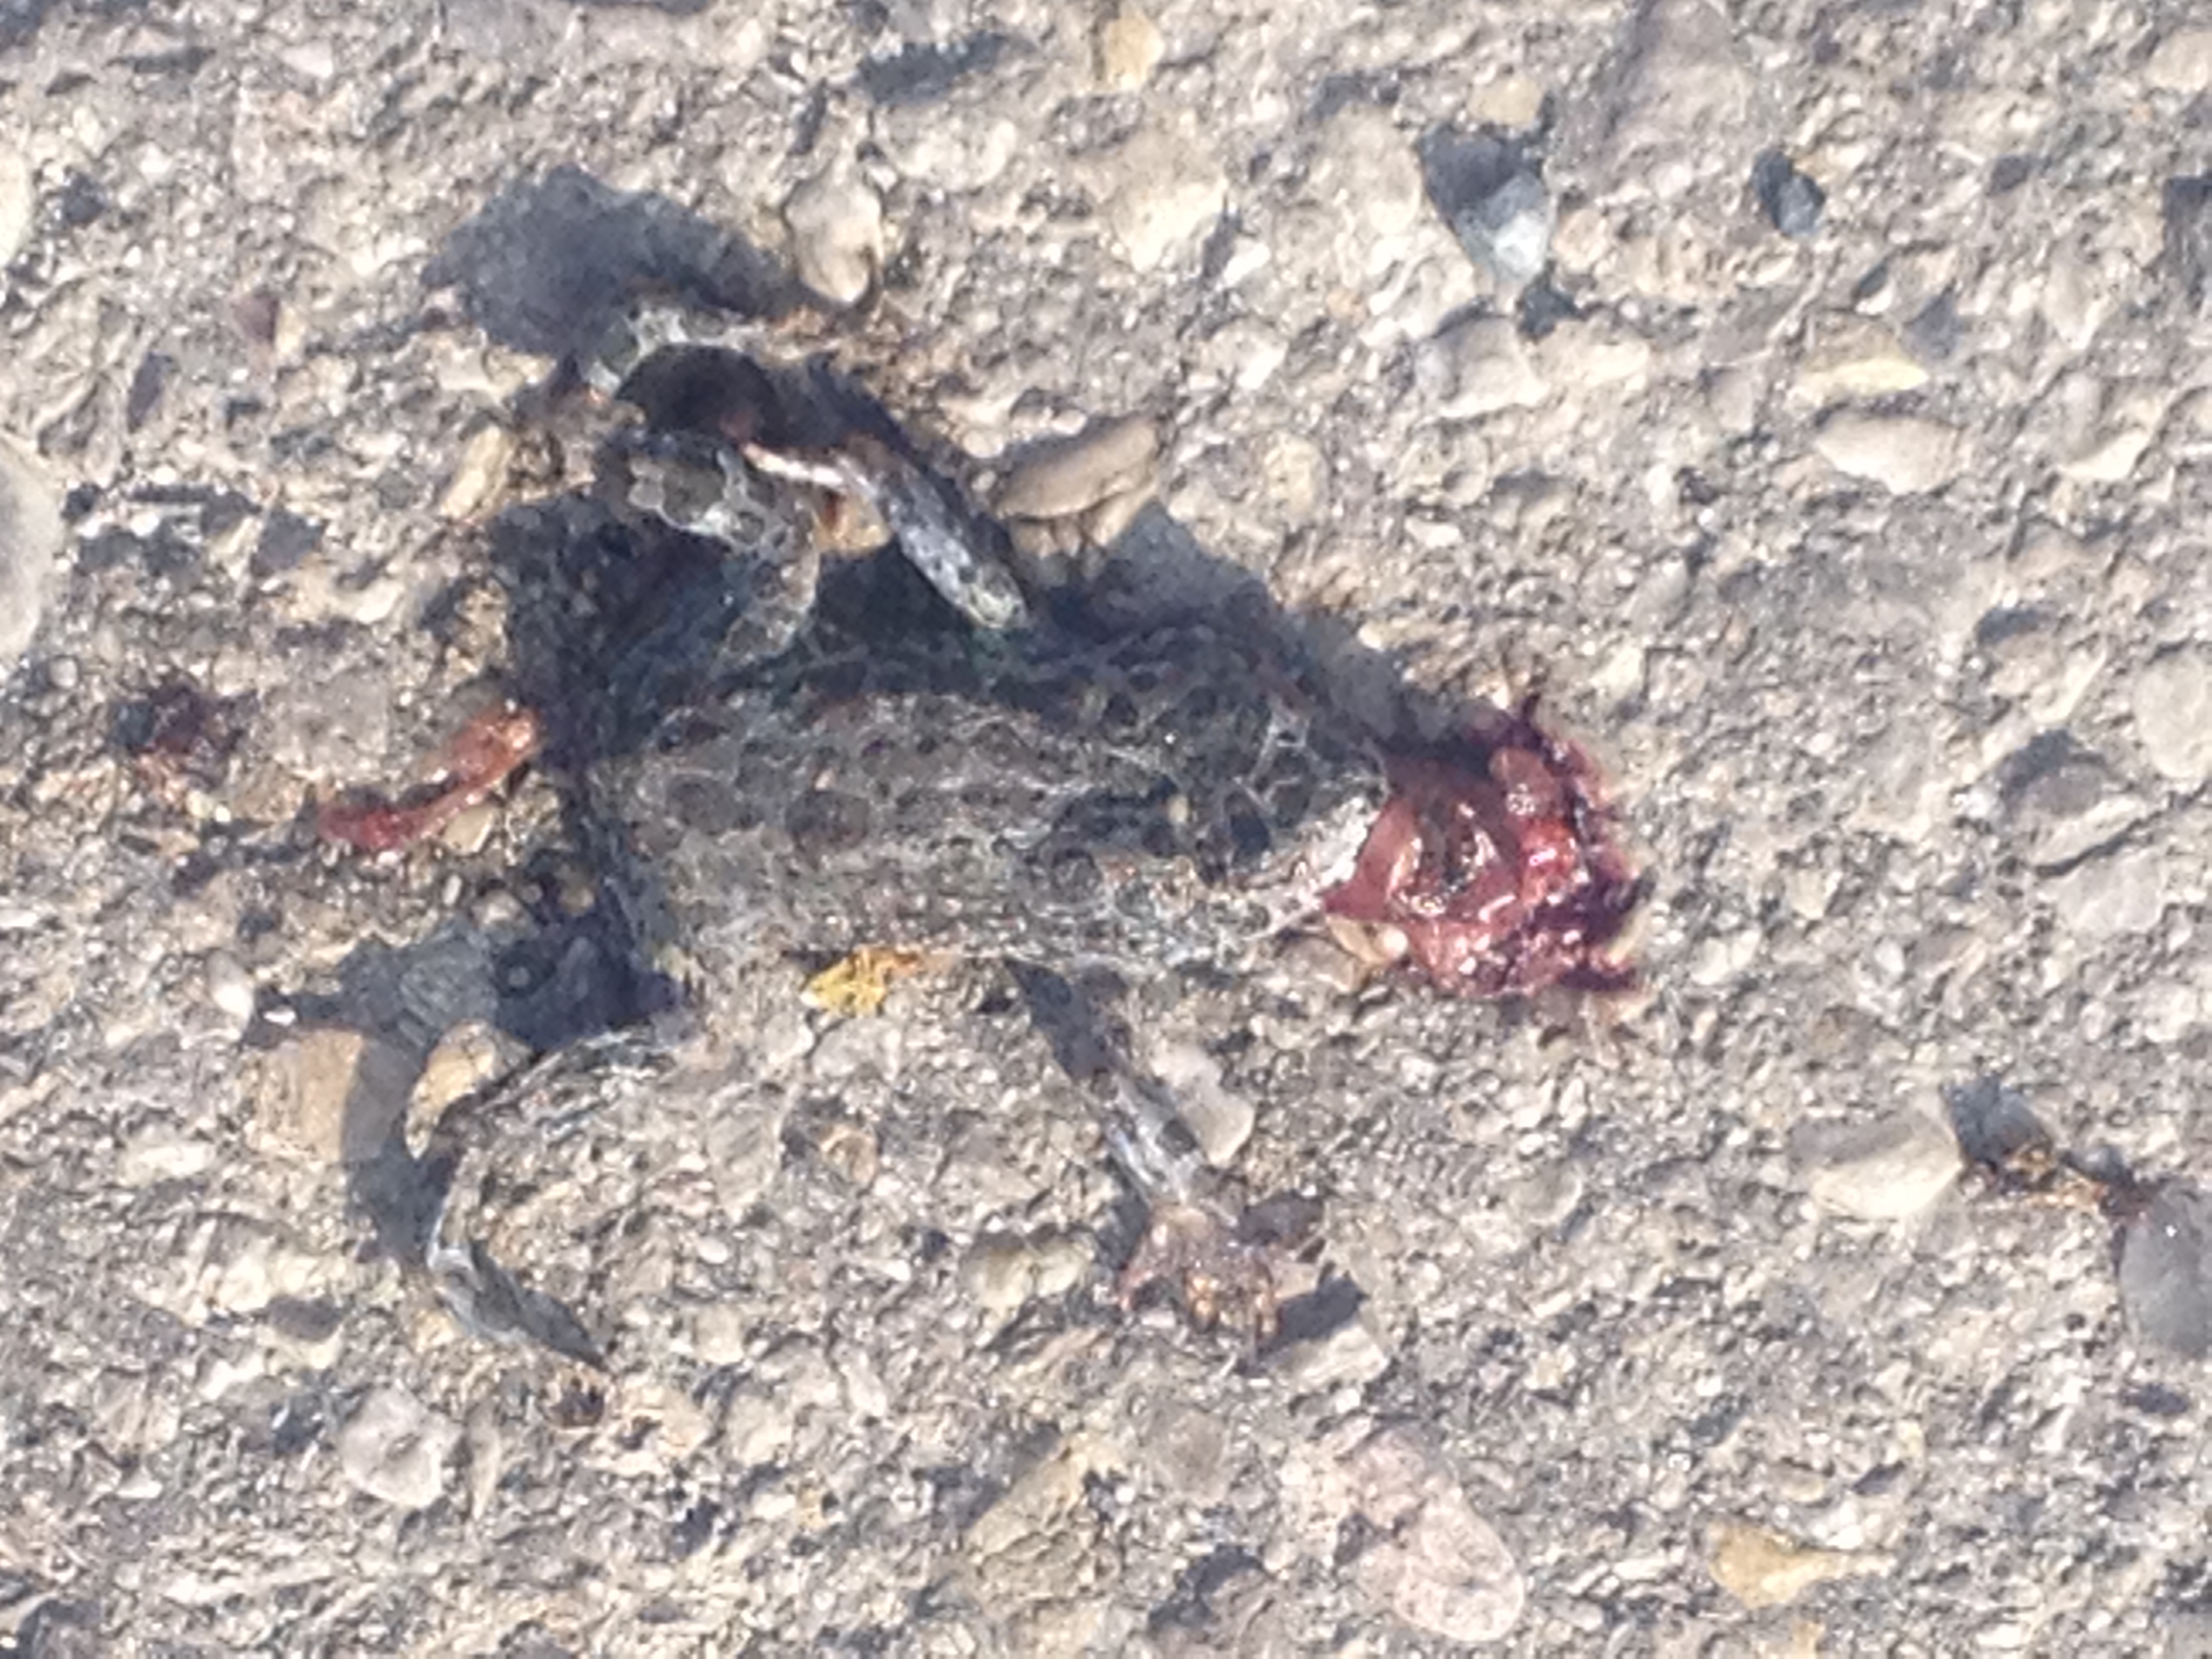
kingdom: Animalia
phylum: Chordata
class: Amphibia
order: Anura
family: Bufonidae
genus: Bufotes
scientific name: Bufotes viridis
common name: European green toad
